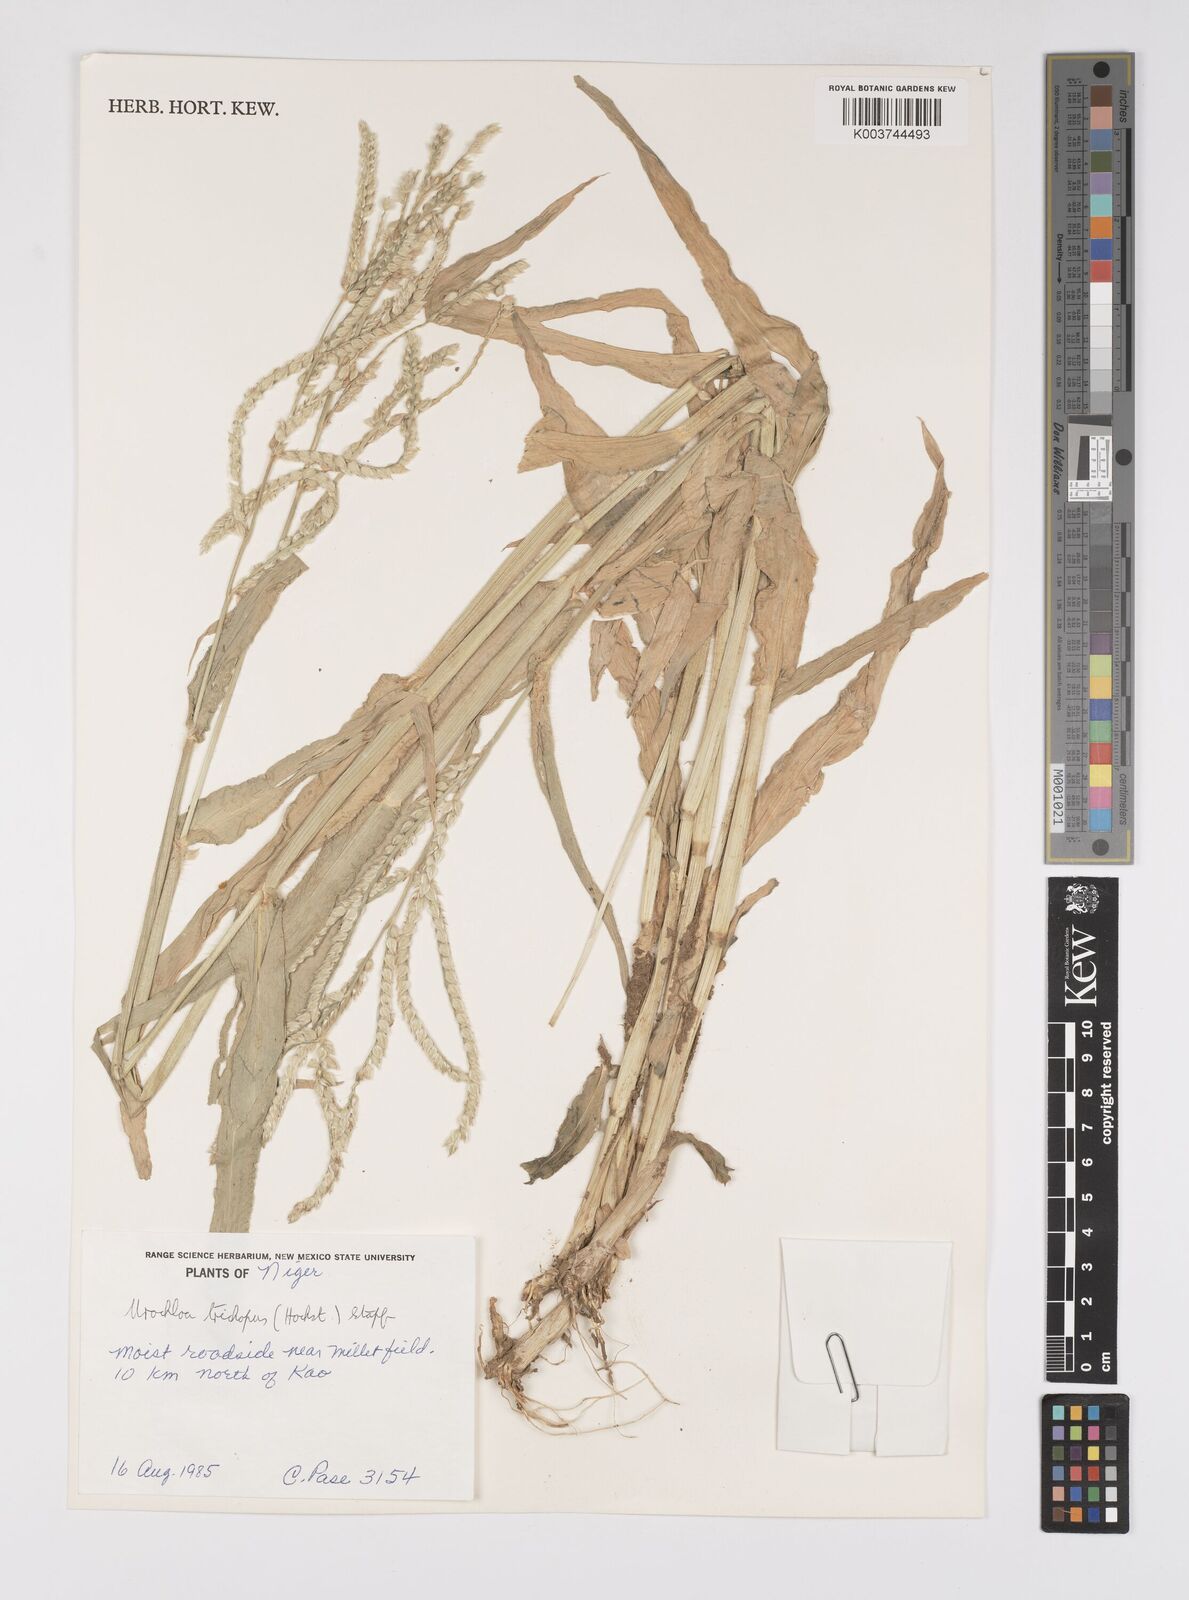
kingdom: Plantae
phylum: Tracheophyta
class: Liliopsida
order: Poales
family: Poaceae
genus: Urochloa
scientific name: Urochloa trichopus
